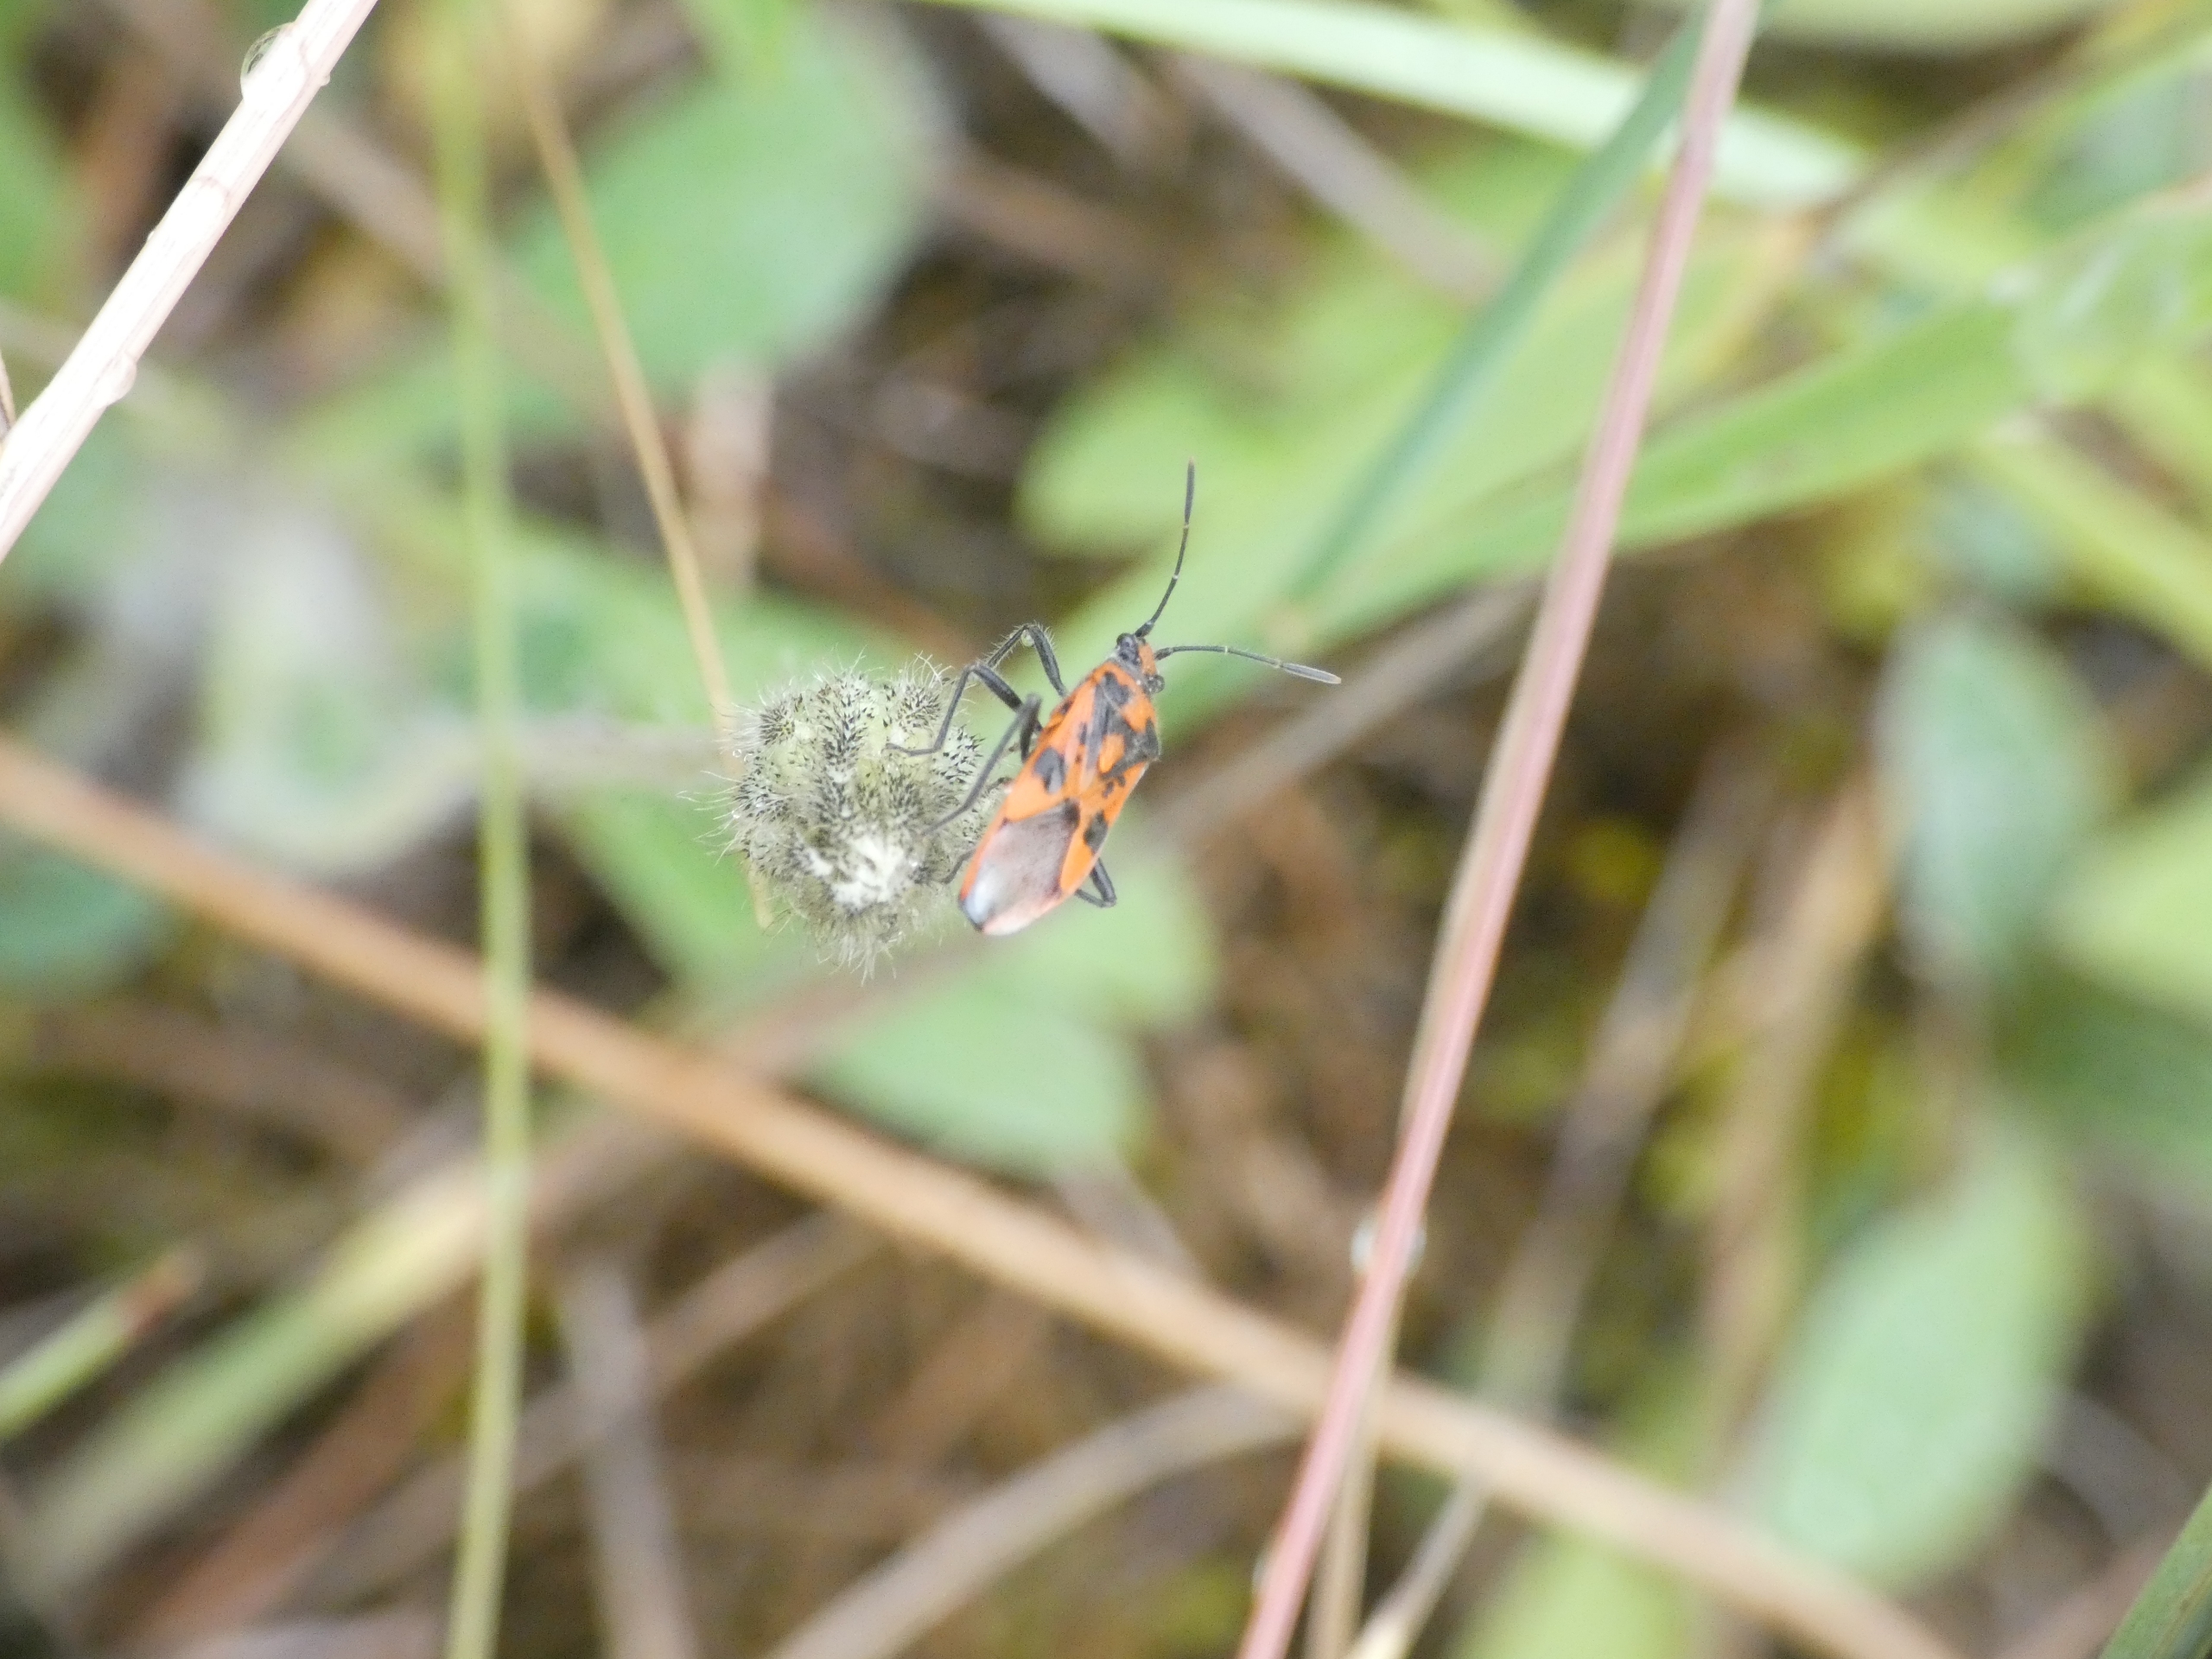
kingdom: Animalia
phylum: Arthropoda
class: Insecta
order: Hemiptera
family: Rhopalidae
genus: Corizus
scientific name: Corizus hyoscyami
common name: Rød kanttæge
